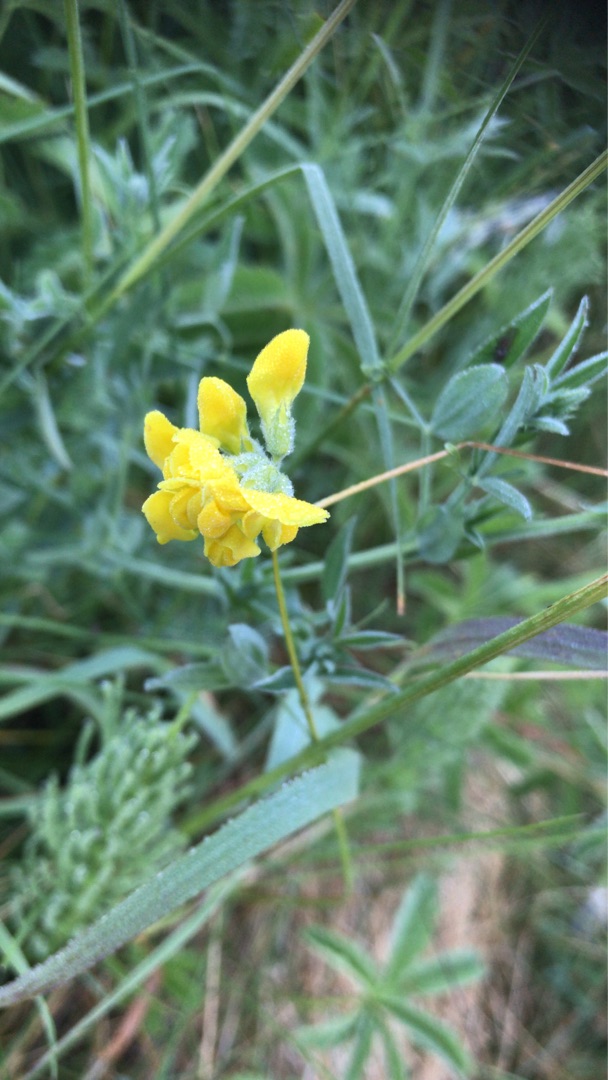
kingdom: Plantae
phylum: Tracheophyta
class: Magnoliopsida
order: Fabales
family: Fabaceae
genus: Lathyrus
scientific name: Lathyrus pratensis
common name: Gul fladbælg
